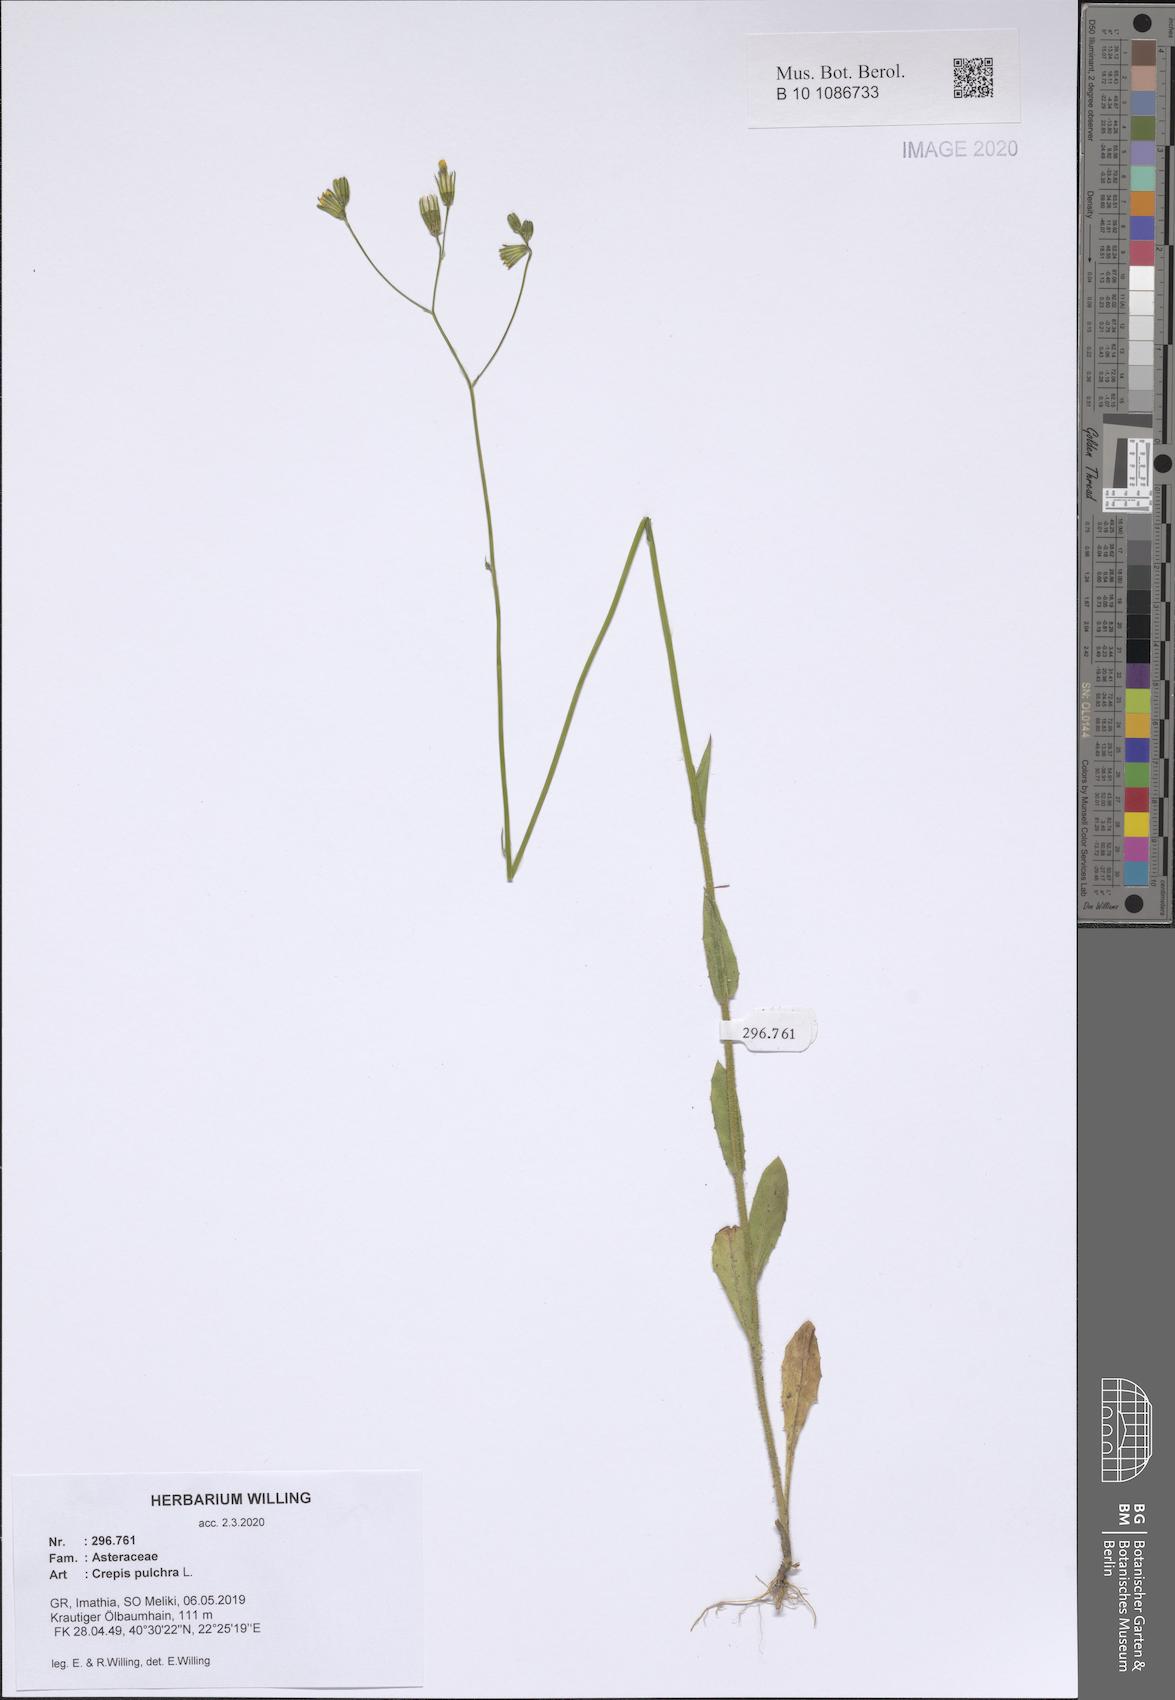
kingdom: Plantae
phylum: Tracheophyta
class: Magnoliopsida
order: Asterales
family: Asteraceae
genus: Crepis
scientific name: Crepis pulchra
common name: Hawk's-beard
